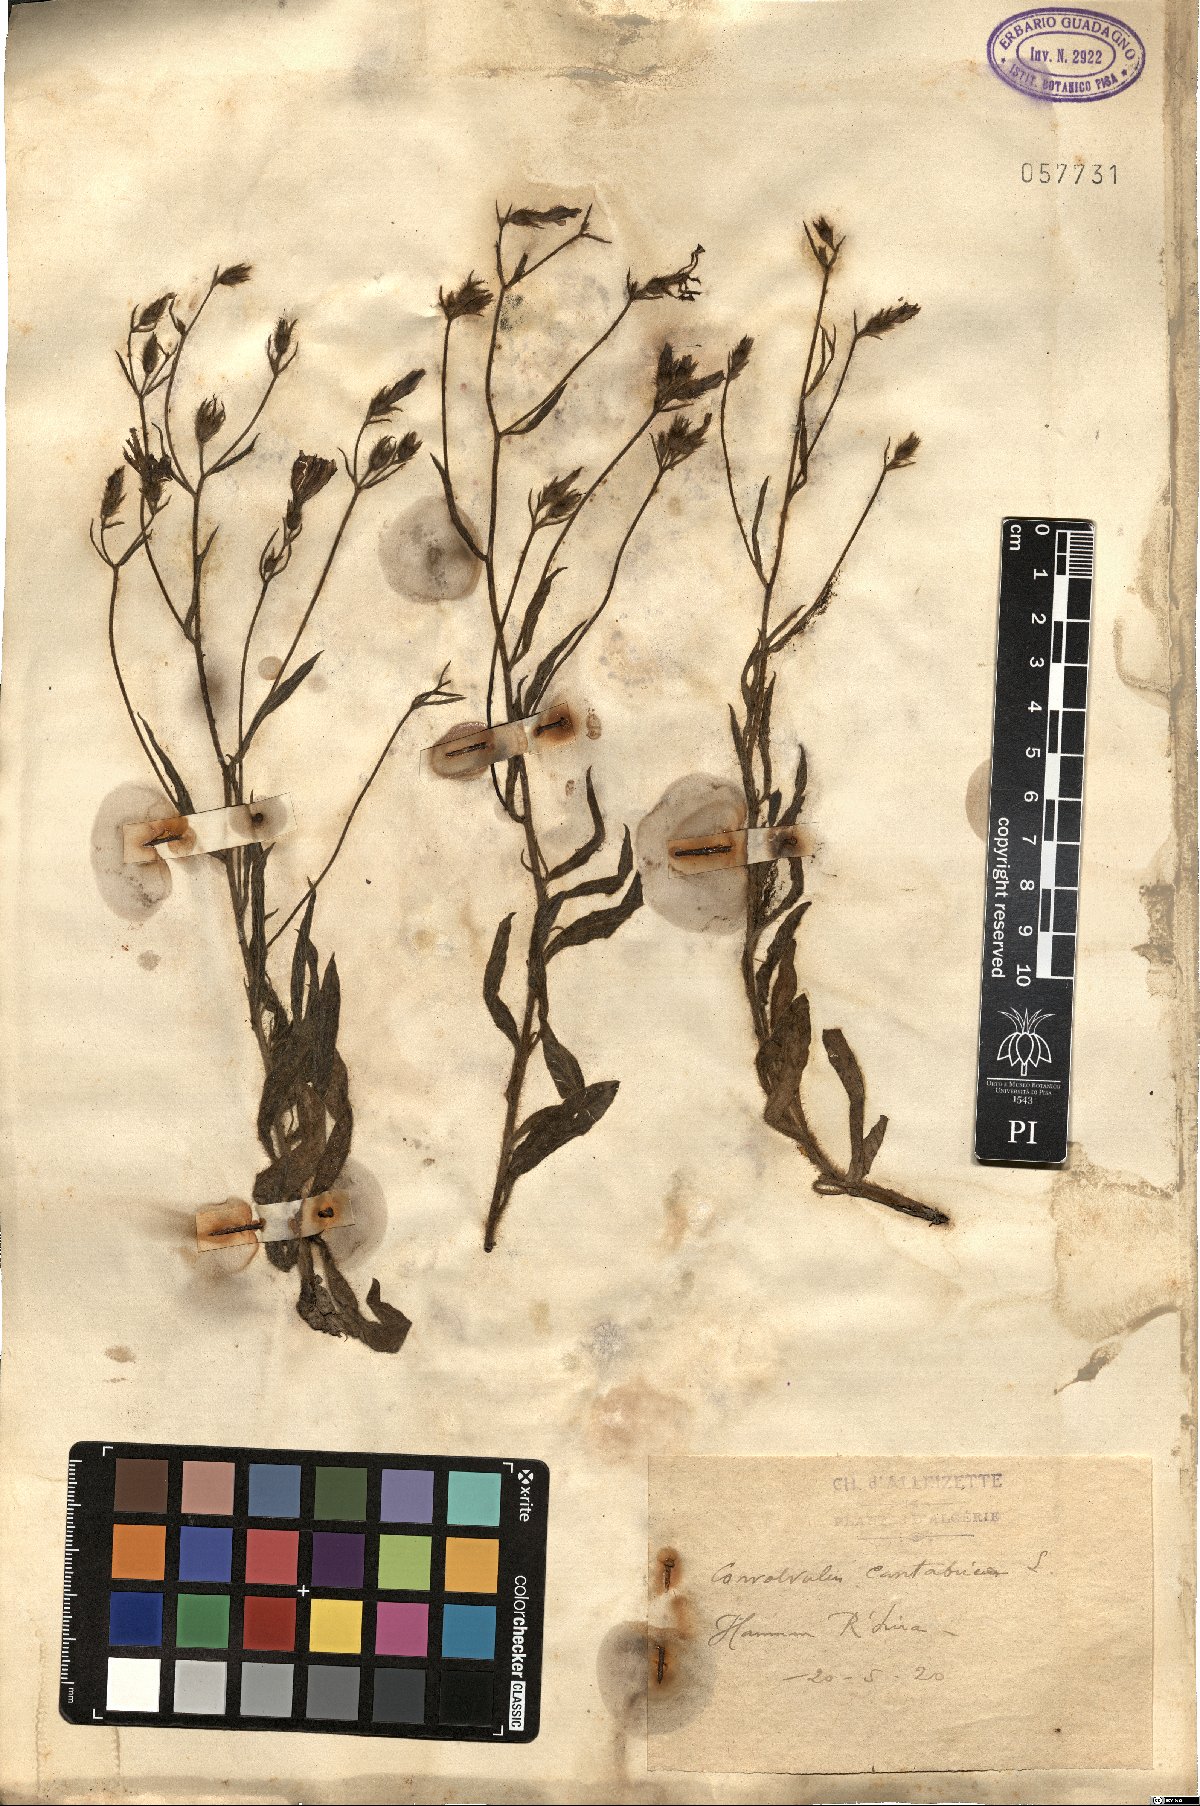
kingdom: Plantae
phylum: Tracheophyta
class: Magnoliopsida
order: Solanales
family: Convolvulaceae
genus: Convolvulus
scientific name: Convolvulus cantabrica
